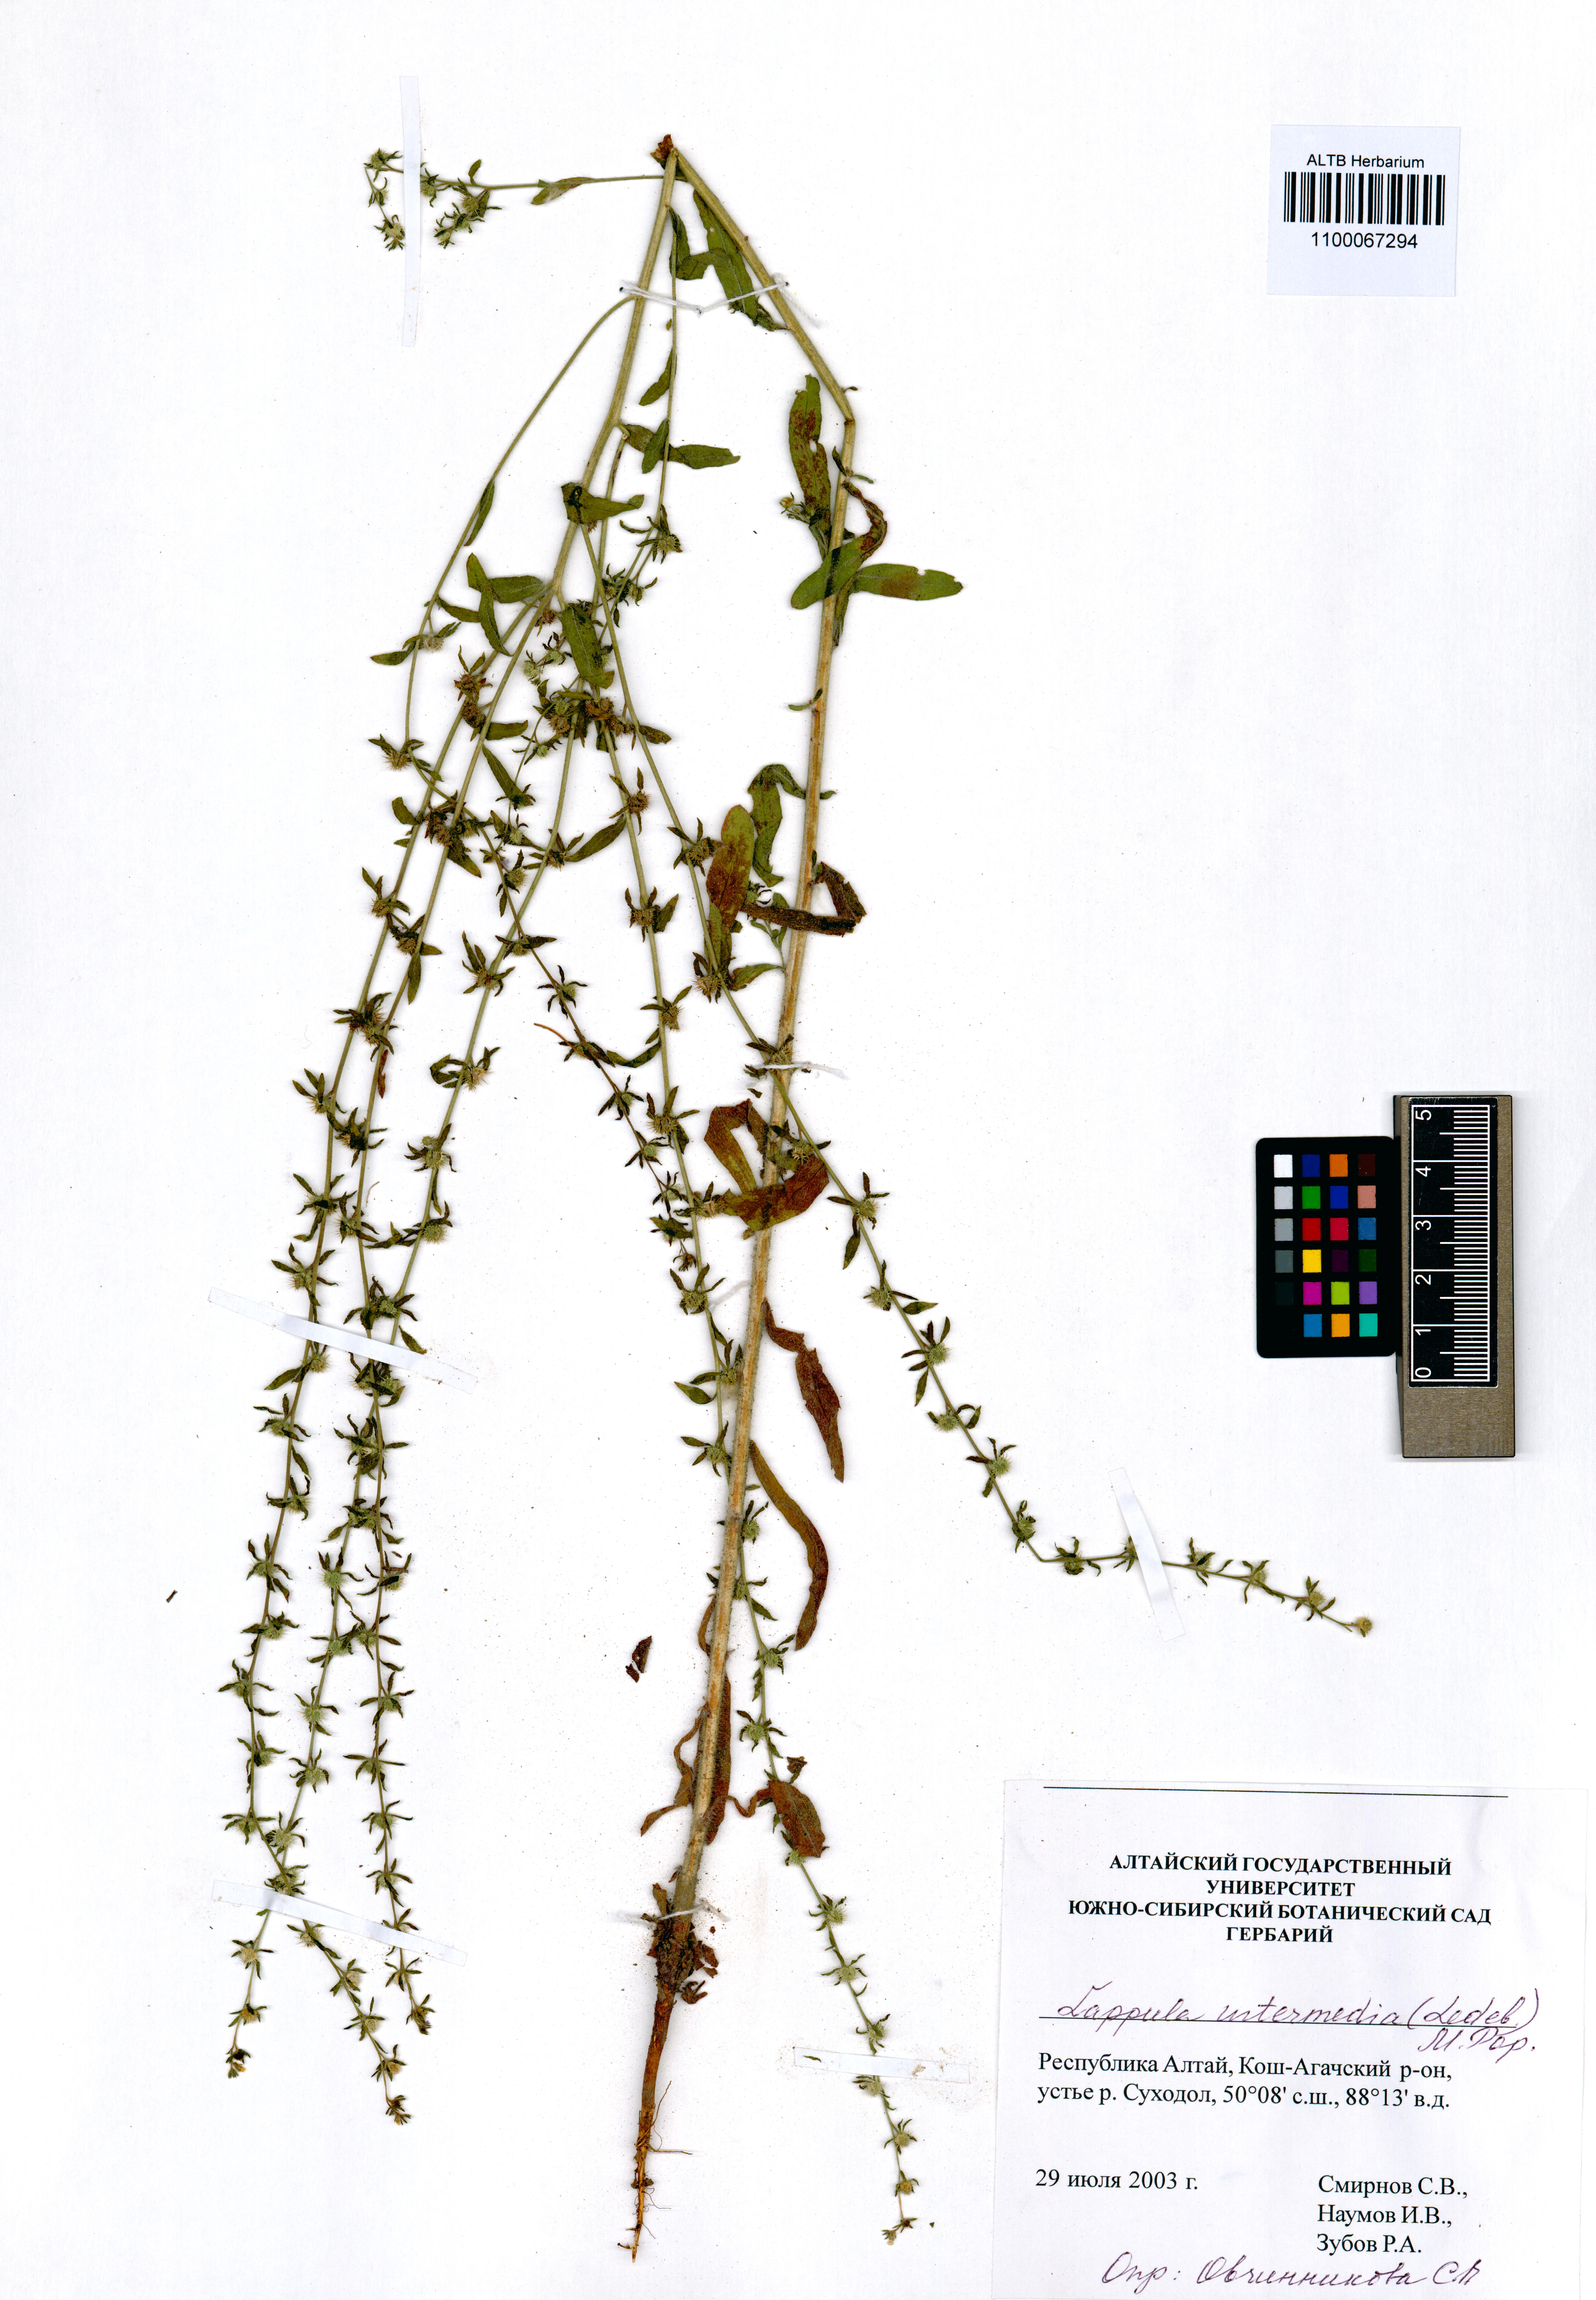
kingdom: Plantae
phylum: Tracheophyta
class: Magnoliopsida
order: Boraginales
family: Boraginaceae
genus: Lappula
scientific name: Lappula intermedia
